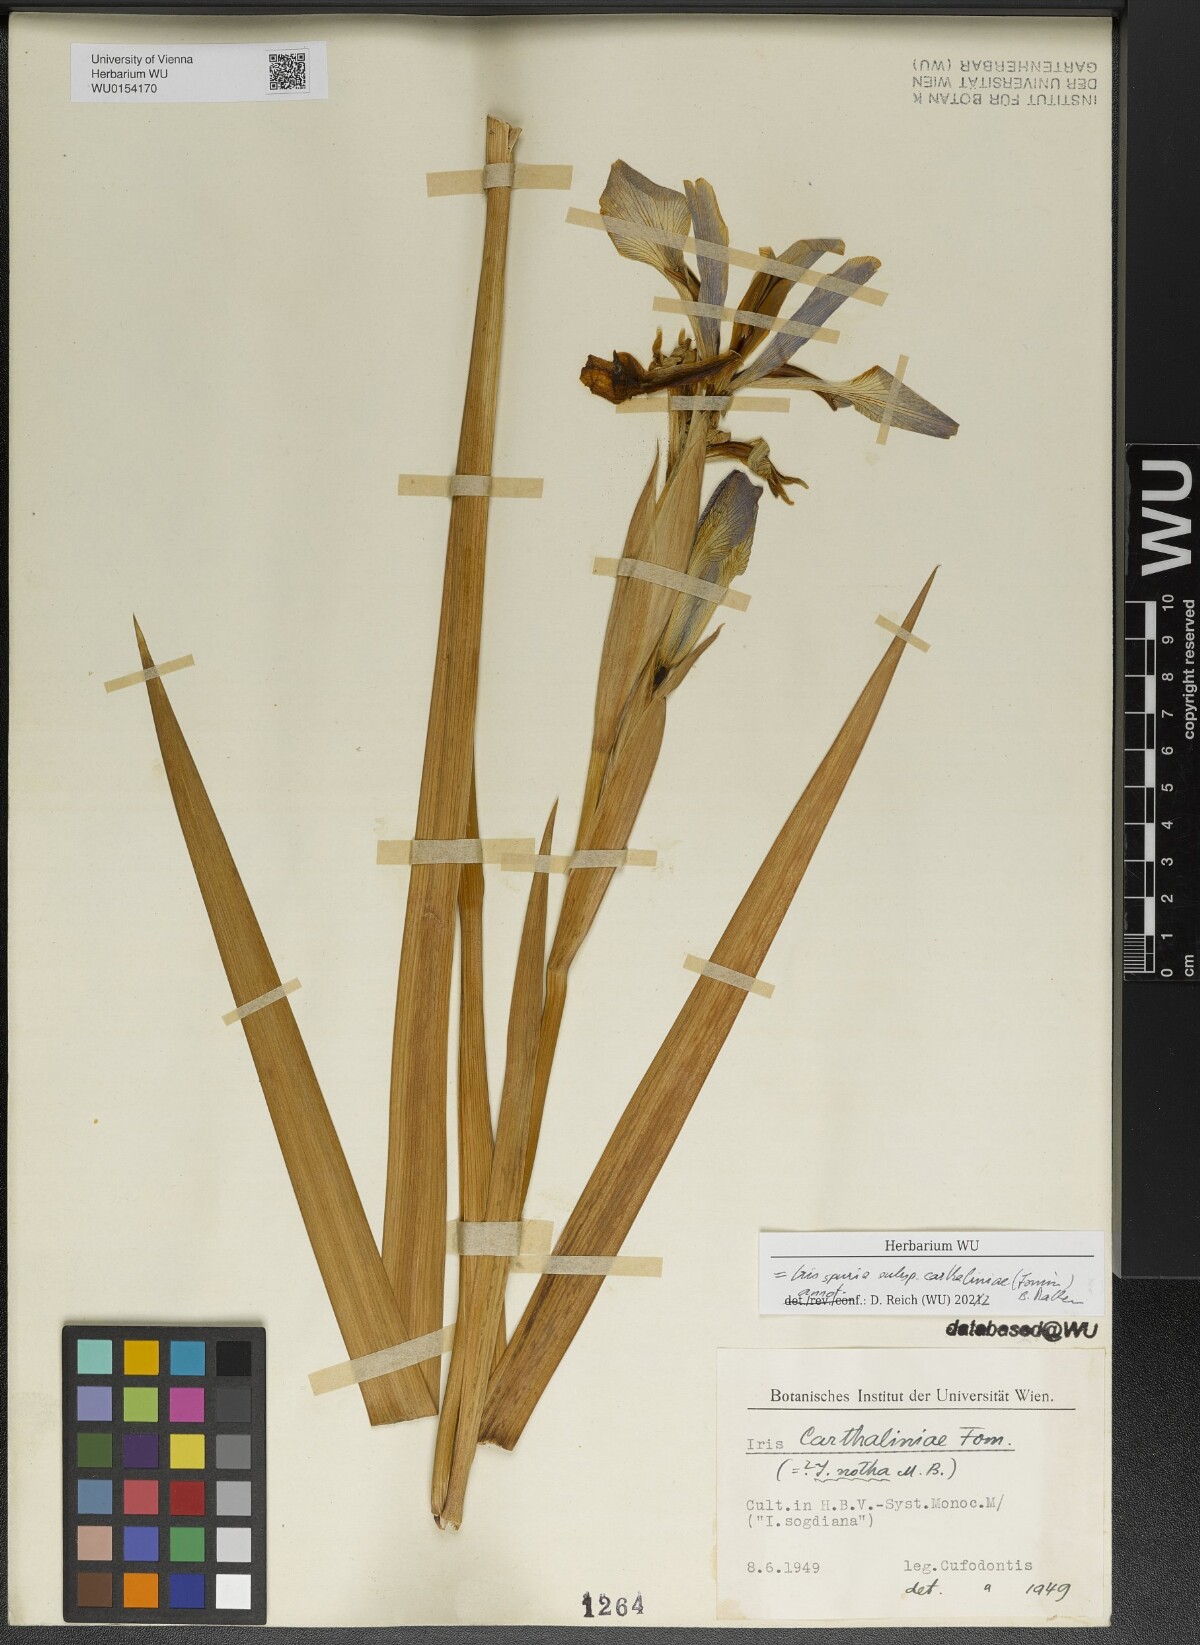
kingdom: Plantae
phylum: Tracheophyta
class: Liliopsida
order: Asparagales
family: Iridaceae
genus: Iris
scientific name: Iris spuria
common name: Blue iris
